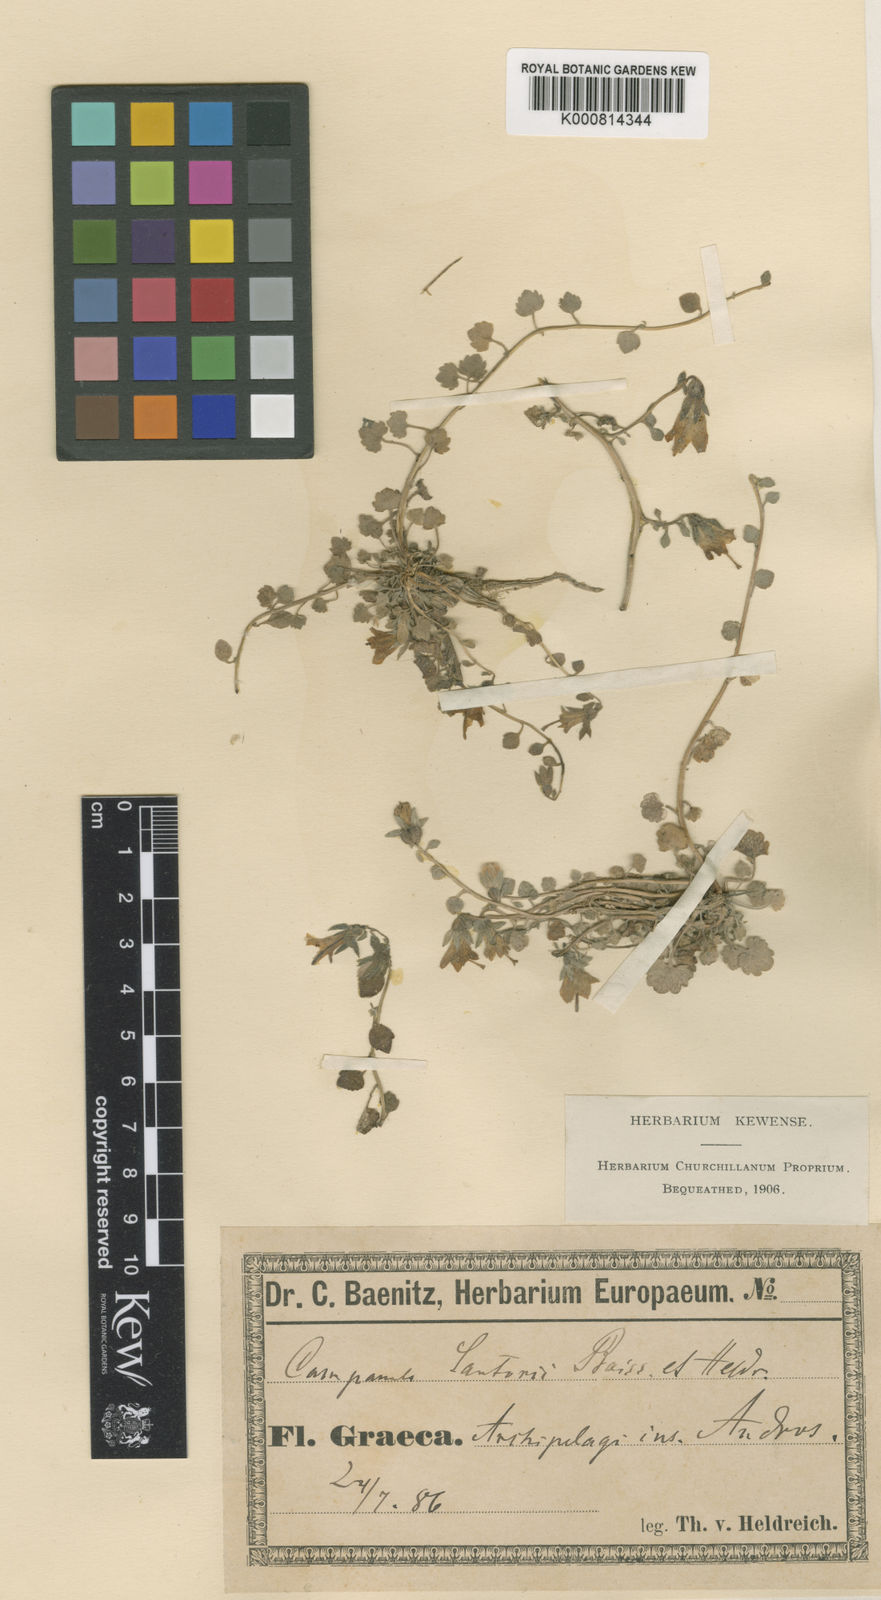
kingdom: Plantae
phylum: Tracheophyta
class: Magnoliopsida
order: Asterales
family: Campanulaceae
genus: Campanula
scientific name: Campanula sartorii
